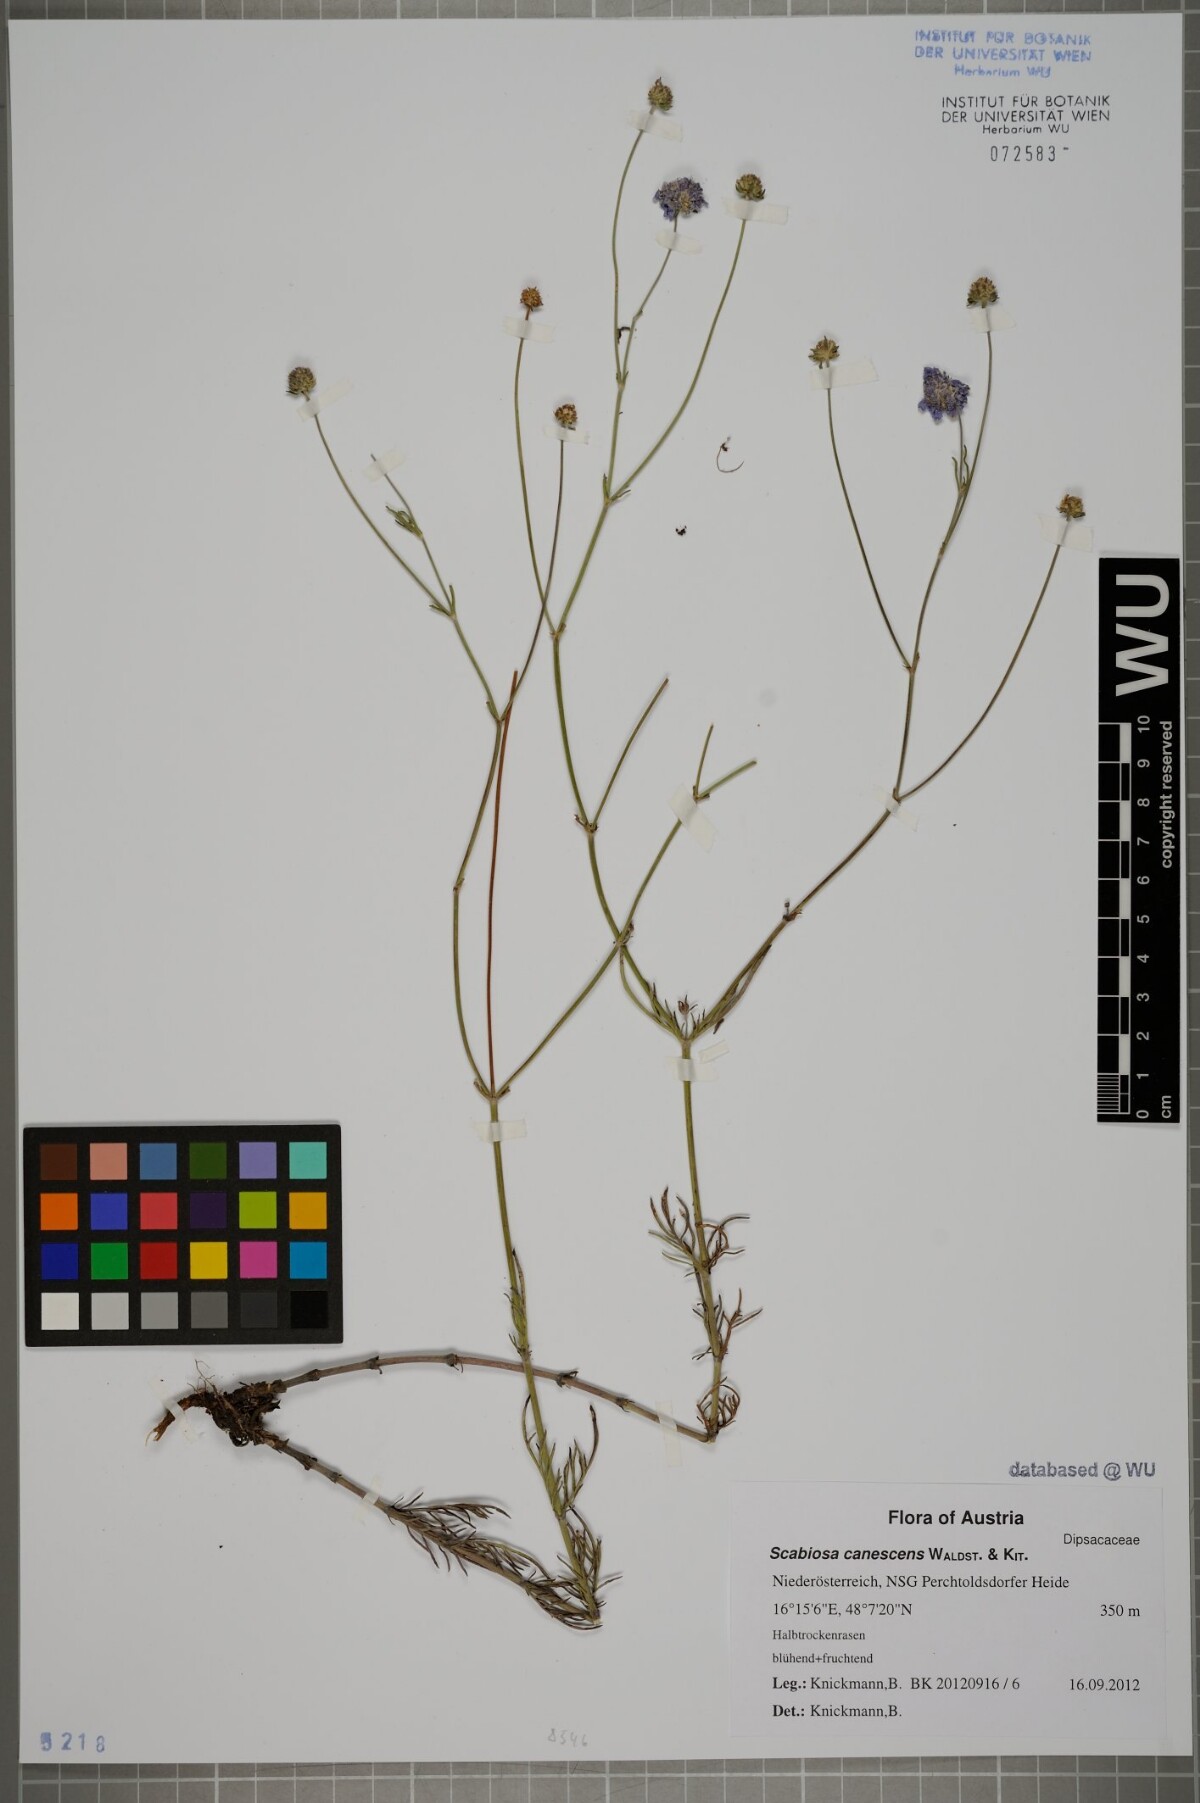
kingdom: Plantae
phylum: Tracheophyta
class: Magnoliopsida
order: Dipsacales
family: Caprifoliaceae
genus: Scabiosa
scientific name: Scabiosa canescens
